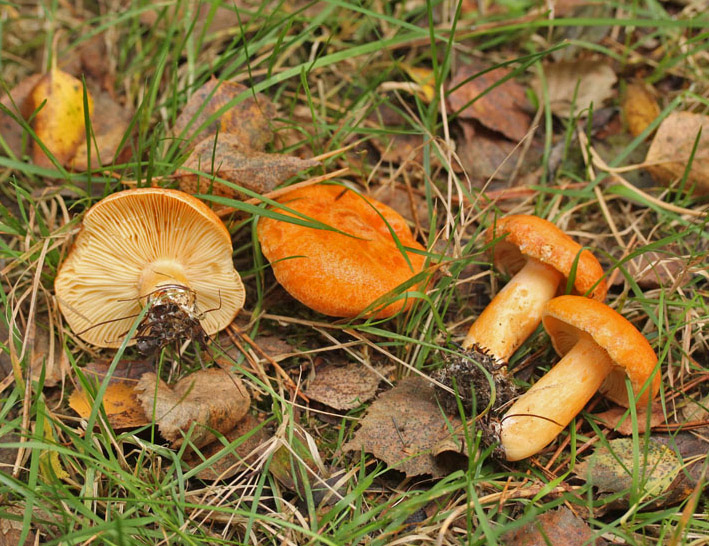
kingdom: Fungi
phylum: Basidiomycota
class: Agaricomycetes
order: Russulales
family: Russulaceae
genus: Lactarius
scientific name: Lactarius porninsis
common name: lærke-mælkehat
